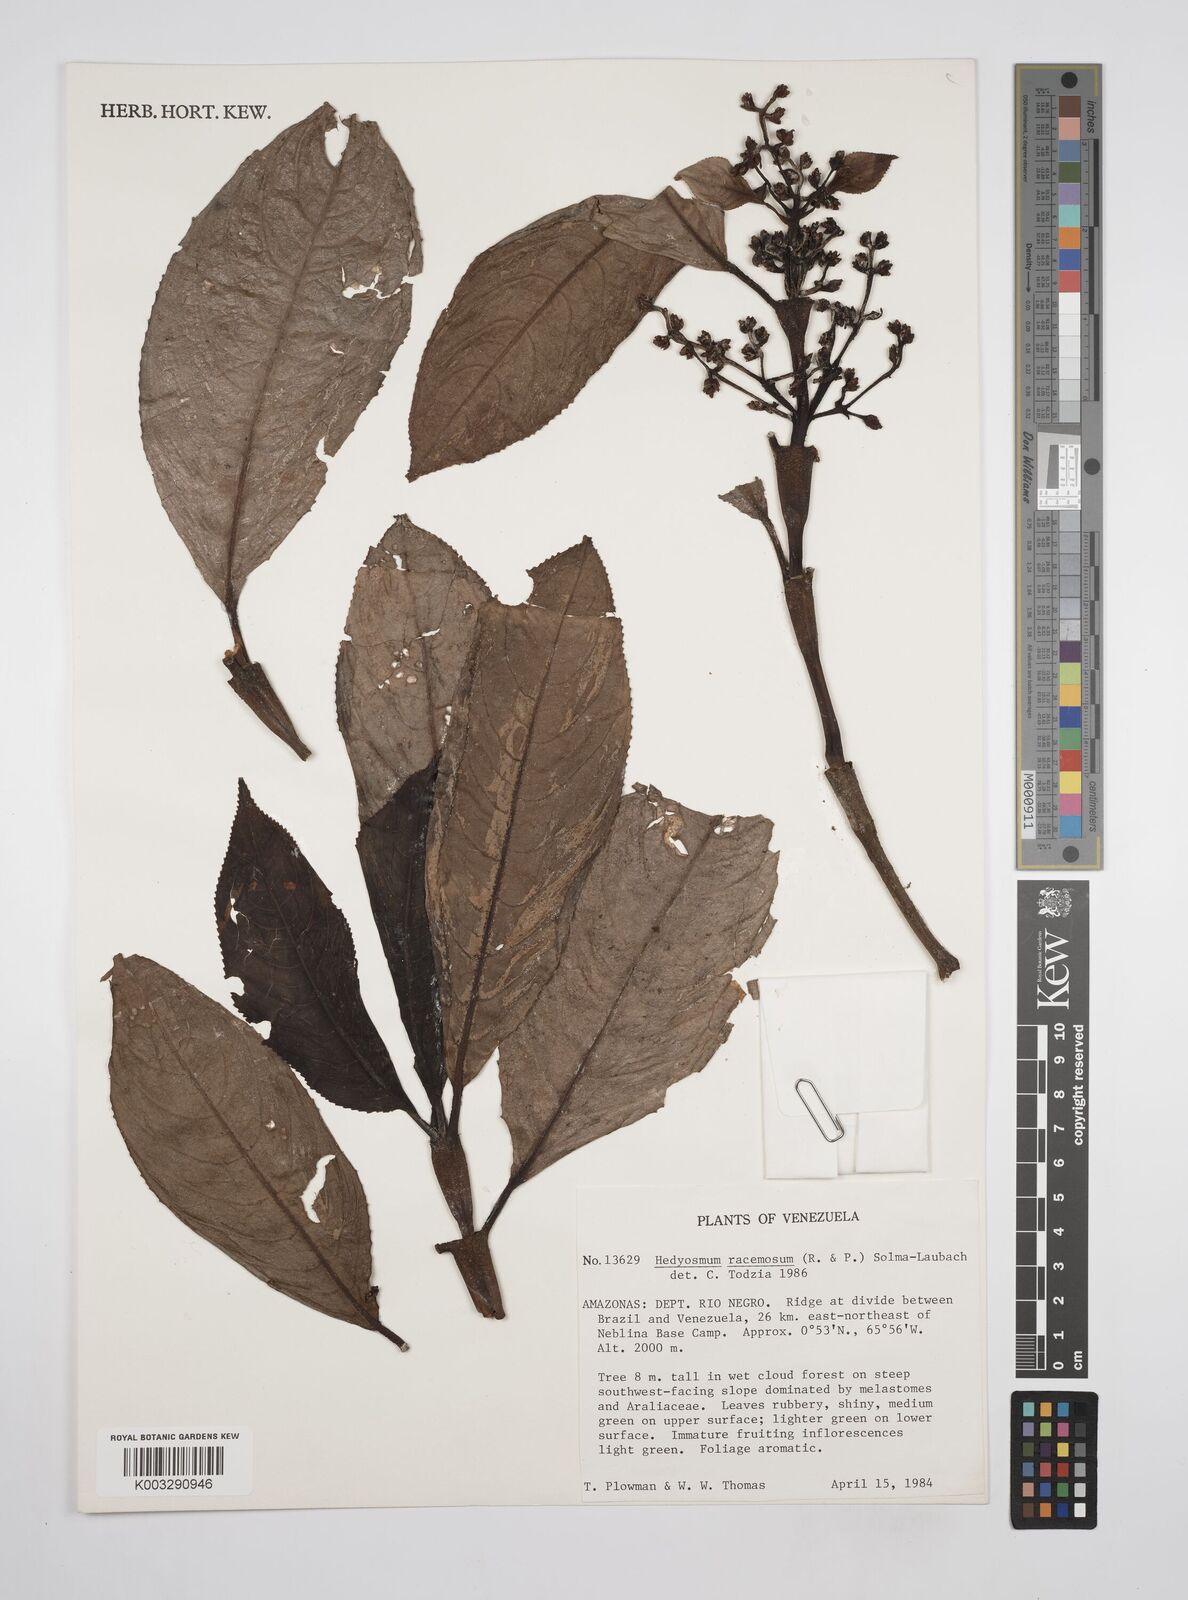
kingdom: Plantae
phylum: Tracheophyta
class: Magnoliopsida
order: Chloranthales
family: Chloranthaceae
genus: Hedyosmum
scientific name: Hedyosmum racemosum
